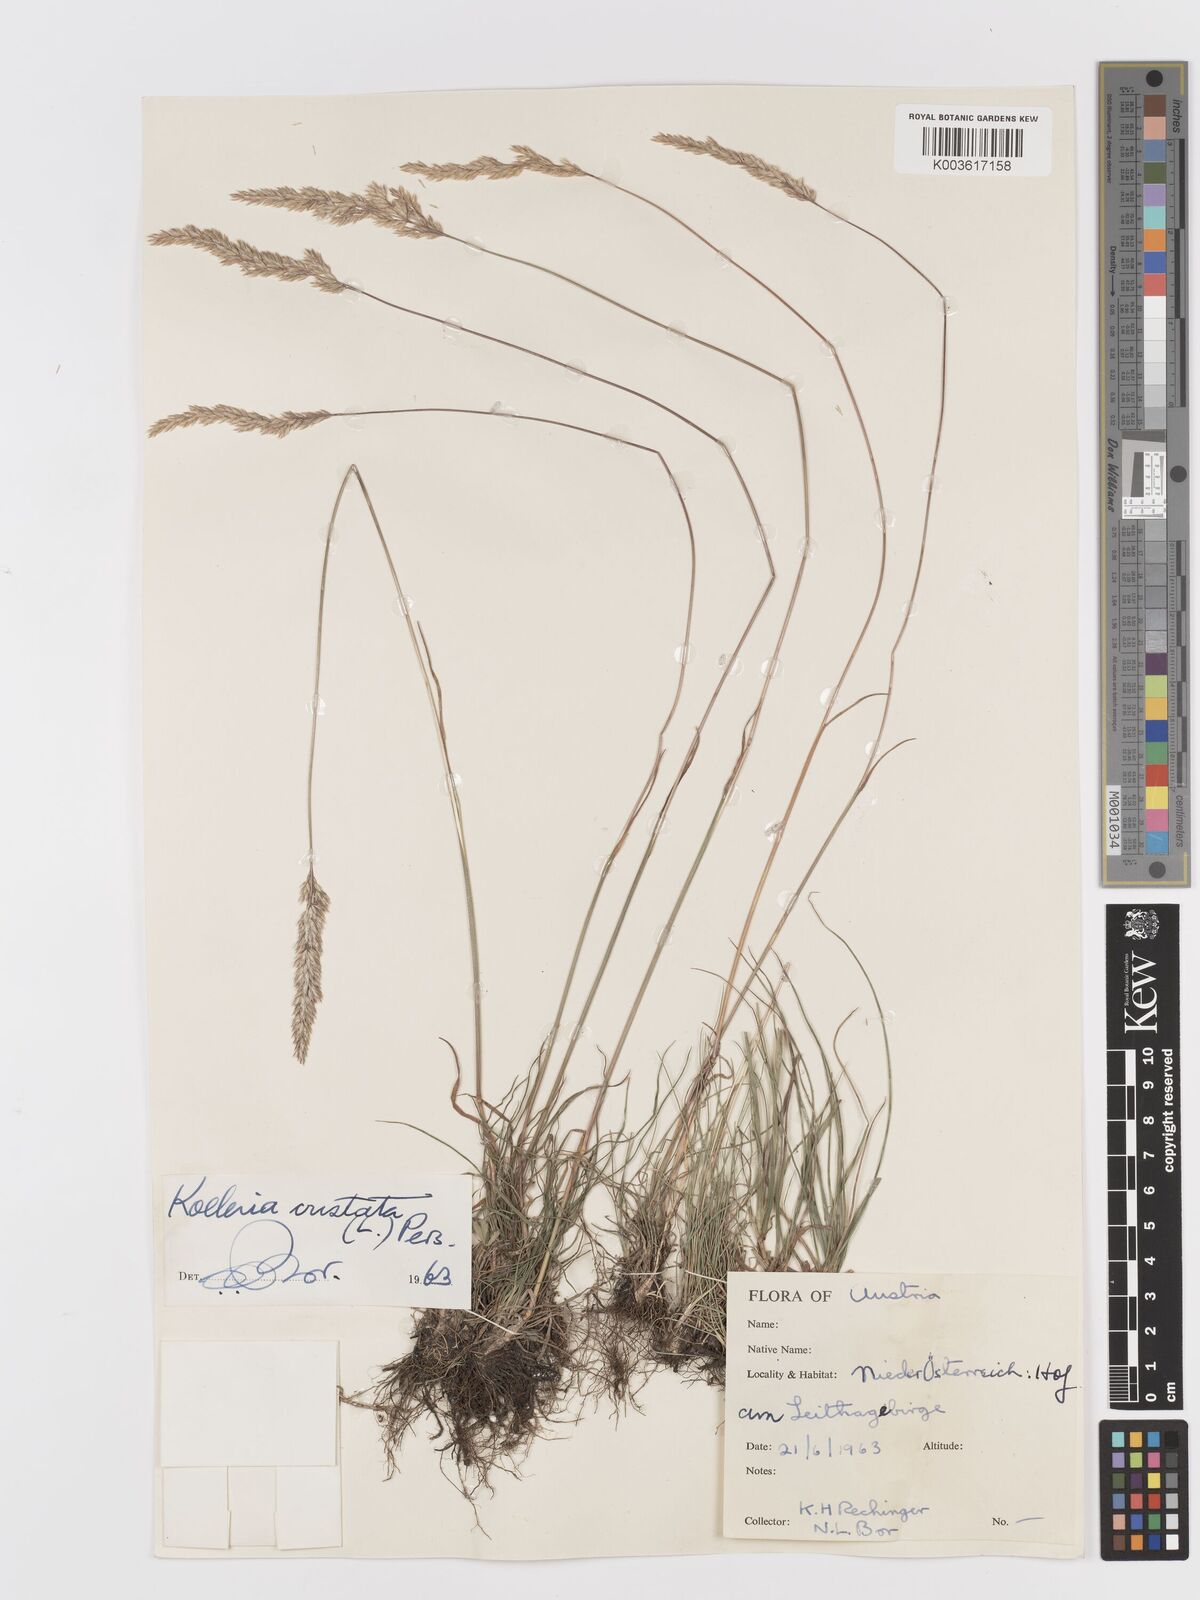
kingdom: Plantae
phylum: Tracheophyta
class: Liliopsida
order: Poales
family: Poaceae
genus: Koeleria
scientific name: Koeleria macrantha
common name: Crested hair-grass
